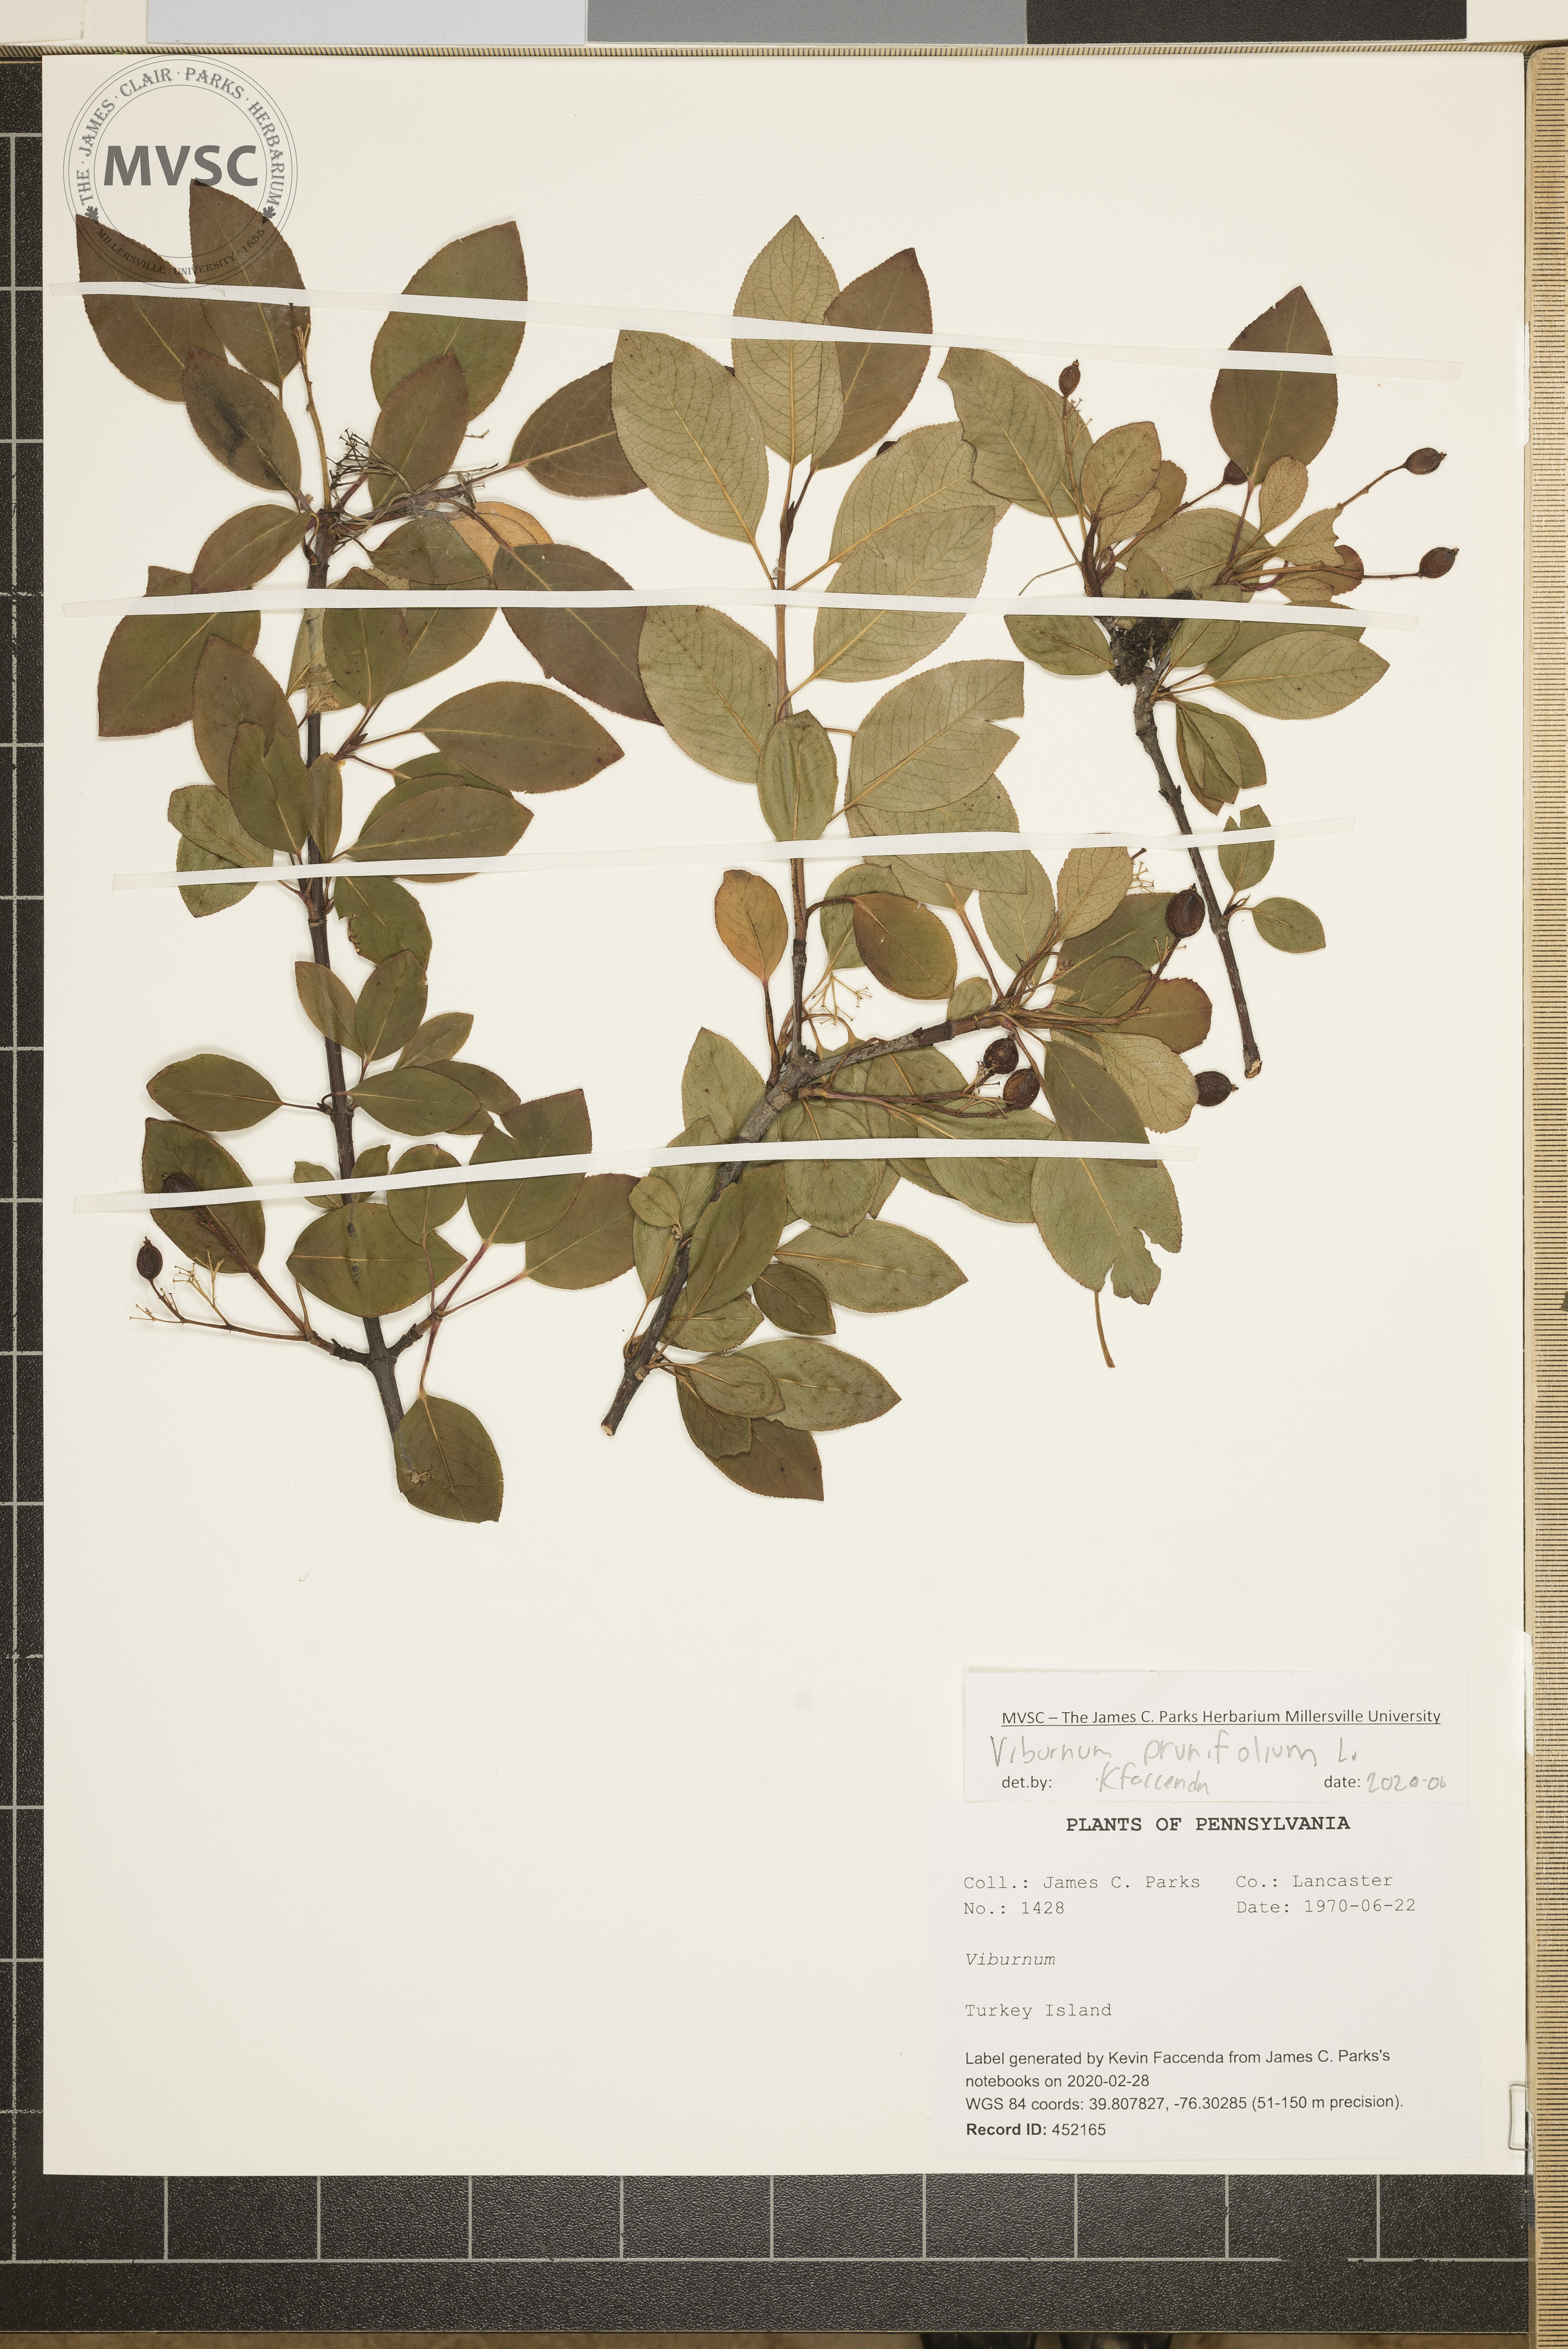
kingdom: Plantae
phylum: Tracheophyta
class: Magnoliopsida
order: Dipsacales
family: Viburnaceae
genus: Viburnum
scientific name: Viburnum prunifolium
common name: Black haw
